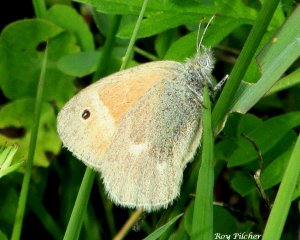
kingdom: Animalia
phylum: Arthropoda
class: Insecta
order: Lepidoptera
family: Nymphalidae
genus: Coenonympha
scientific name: Coenonympha tullia
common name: Large Heath
